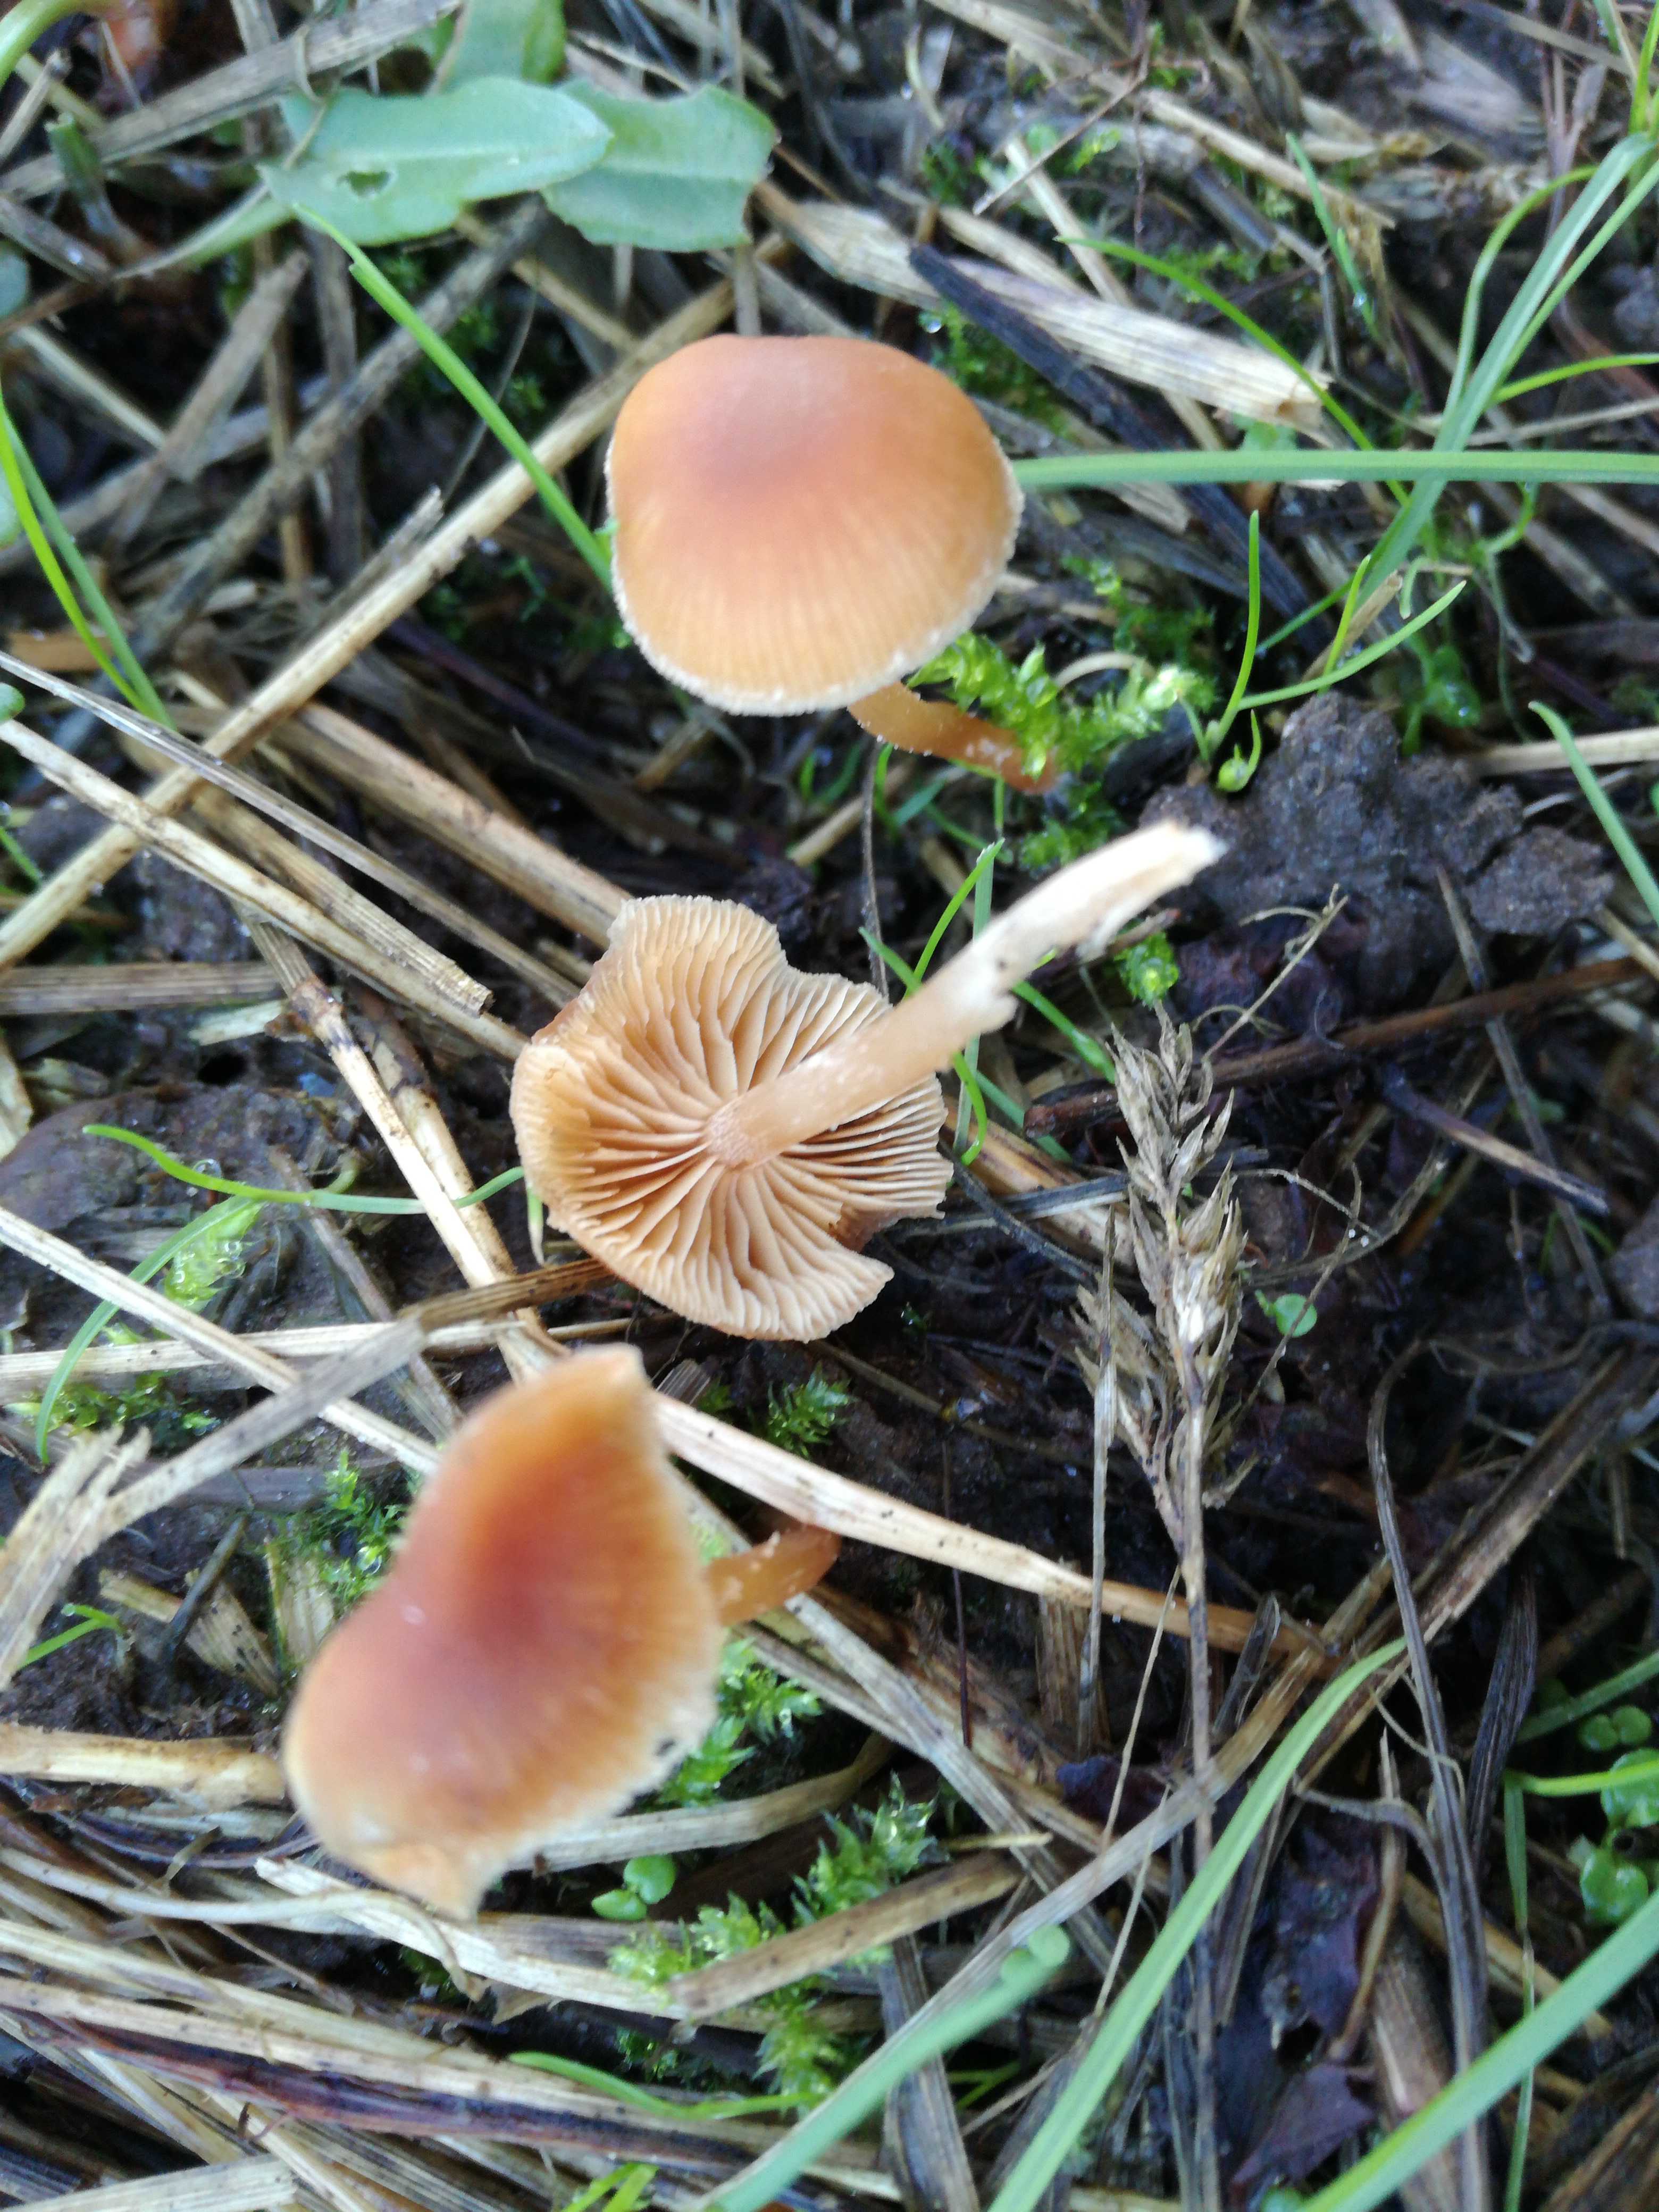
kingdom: Fungi
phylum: Basidiomycota
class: Agaricomycetes
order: Agaricales
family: Tubariaceae
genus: Tubaria
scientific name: Tubaria furfuracea
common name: kliddet fnughat
